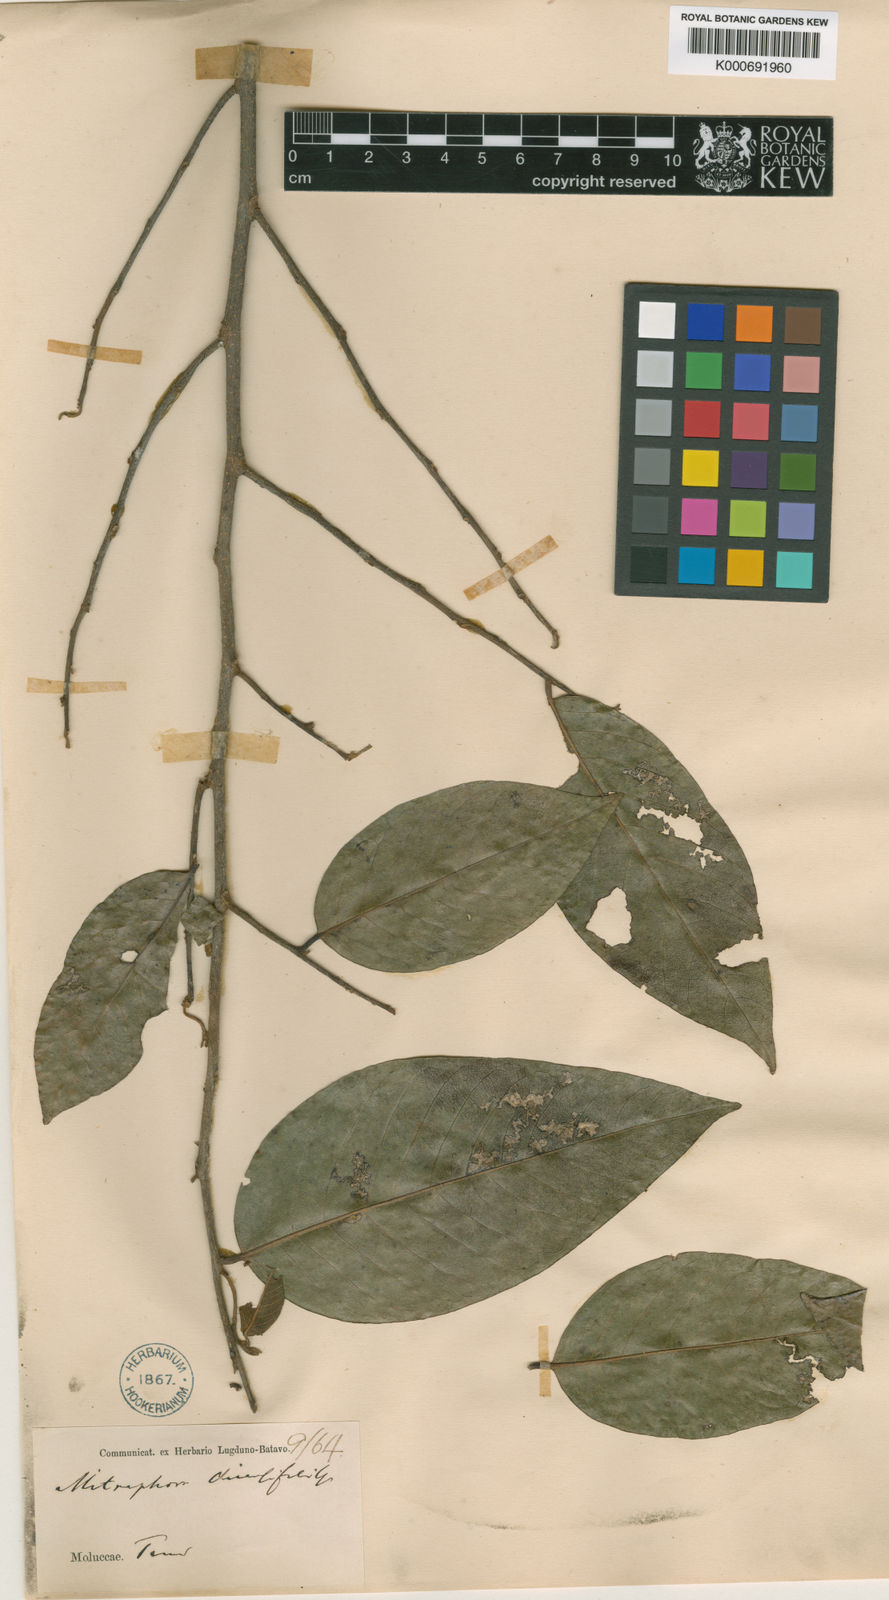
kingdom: Plantae
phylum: Tracheophyta
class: Magnoliopsida
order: Magnoliales
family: Annonaceae
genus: Mitrephora
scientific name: Mitrephora diversifolia
